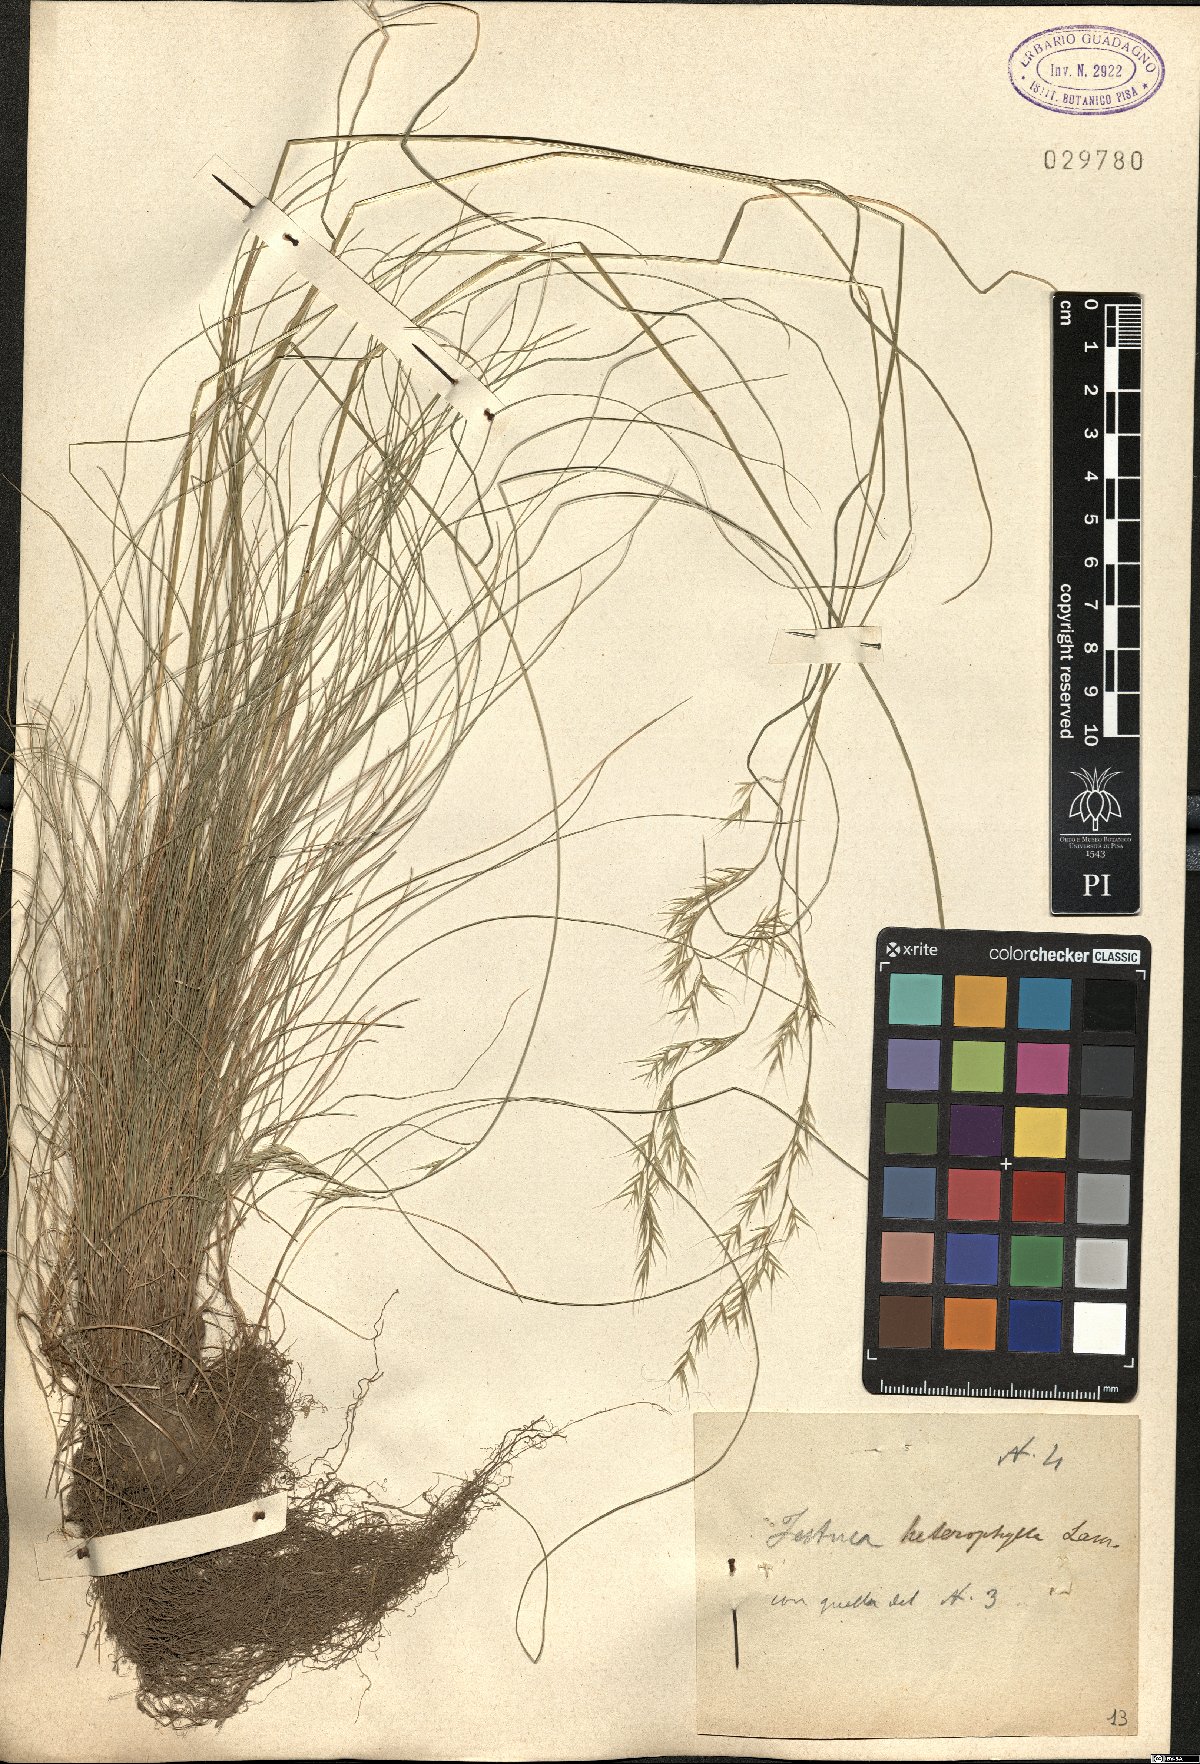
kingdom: Plantae
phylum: Tracheophyta
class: Liliopsida
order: Poales
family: Poaceae
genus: Festuca
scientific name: Festuca heterophylla
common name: Various-leaved fescue
